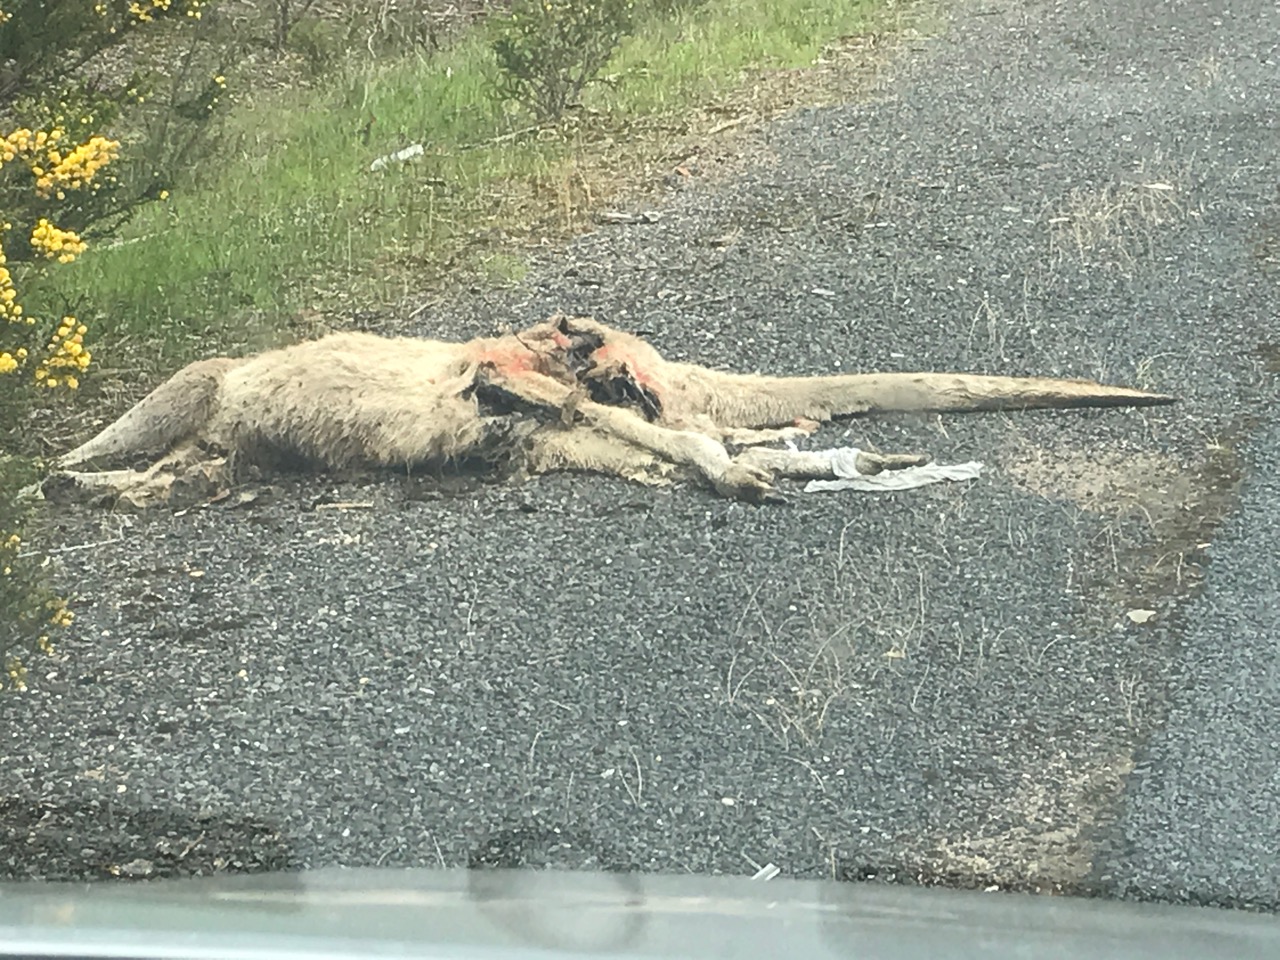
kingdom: Animalia
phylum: Chordata
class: Mammalia
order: Diprotodontia
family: Macropodidae
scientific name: Macropodidae
